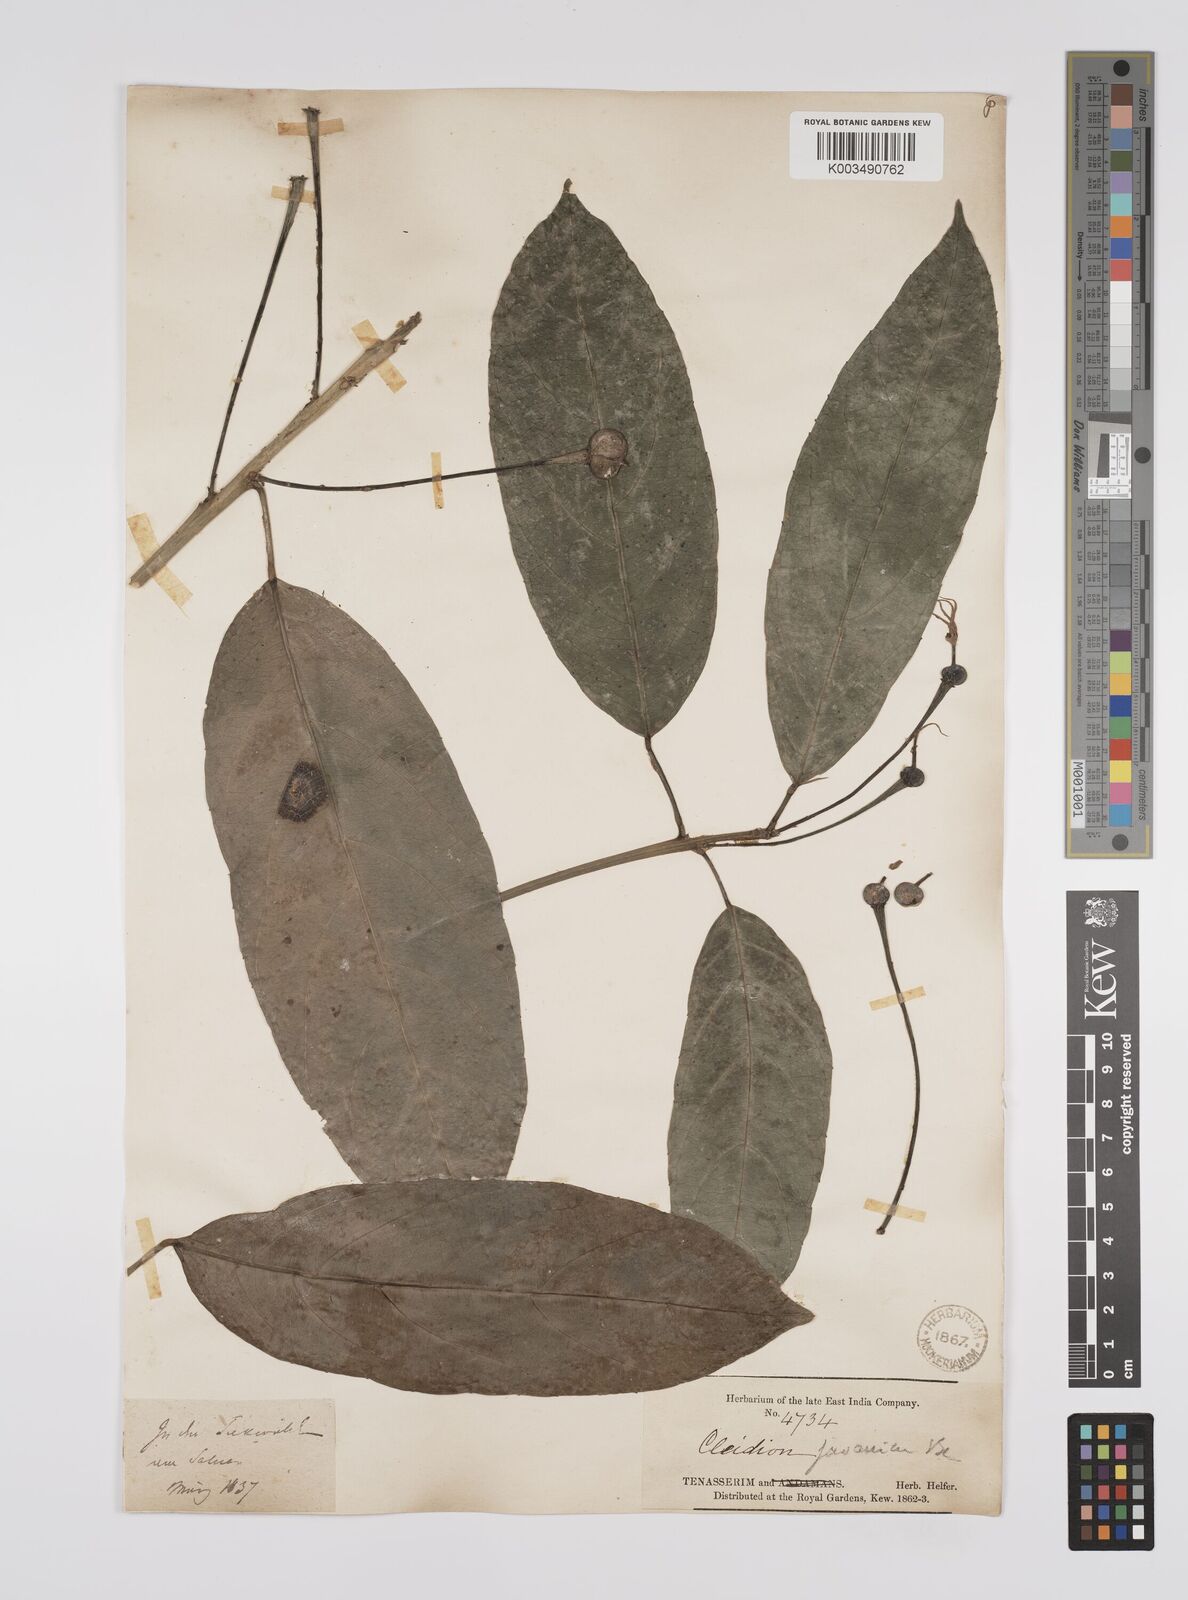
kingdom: Plantae
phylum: Tracheophyta
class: Magnoliopsida
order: Malpighiales
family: Euphorbiaceae
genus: Acalypha
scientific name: Acalypha spiciflora
